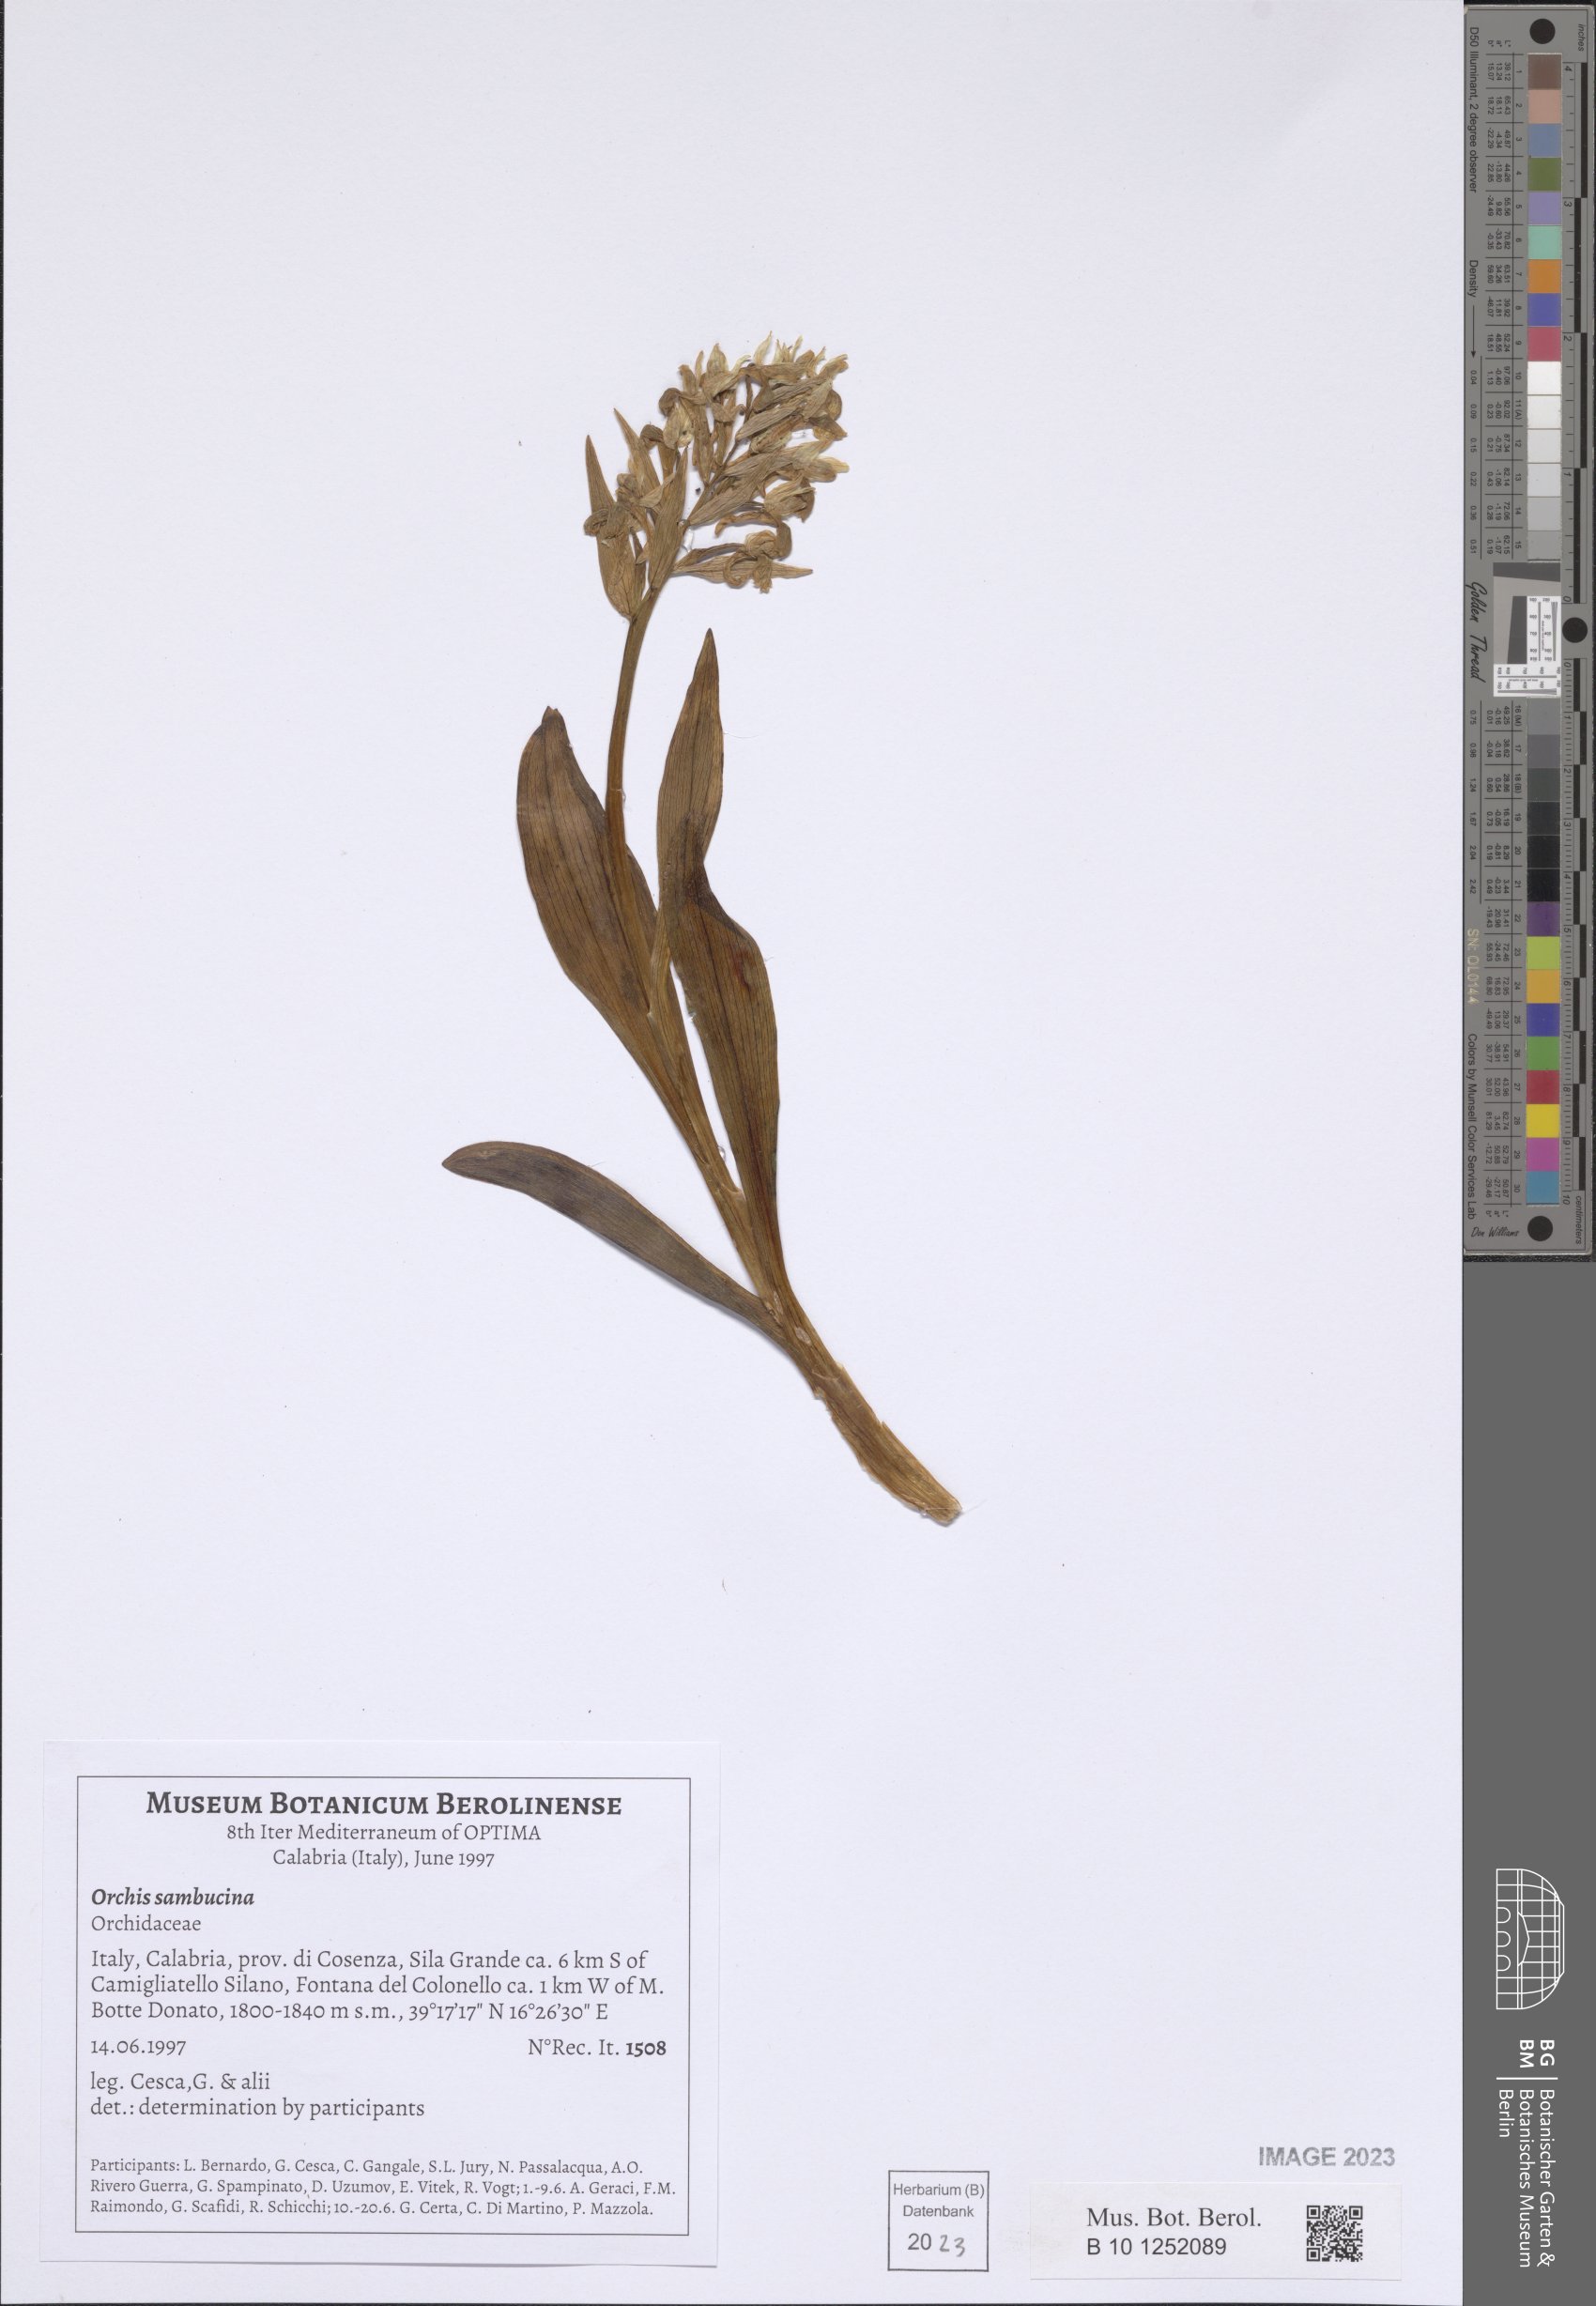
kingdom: Plantae
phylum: Tracheophyta
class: Liliopsida
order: Asparagales
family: Orchidaceae
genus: Dactylorhiza
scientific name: Dactylorhiza sambucina
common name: Elder-flowered orchid
